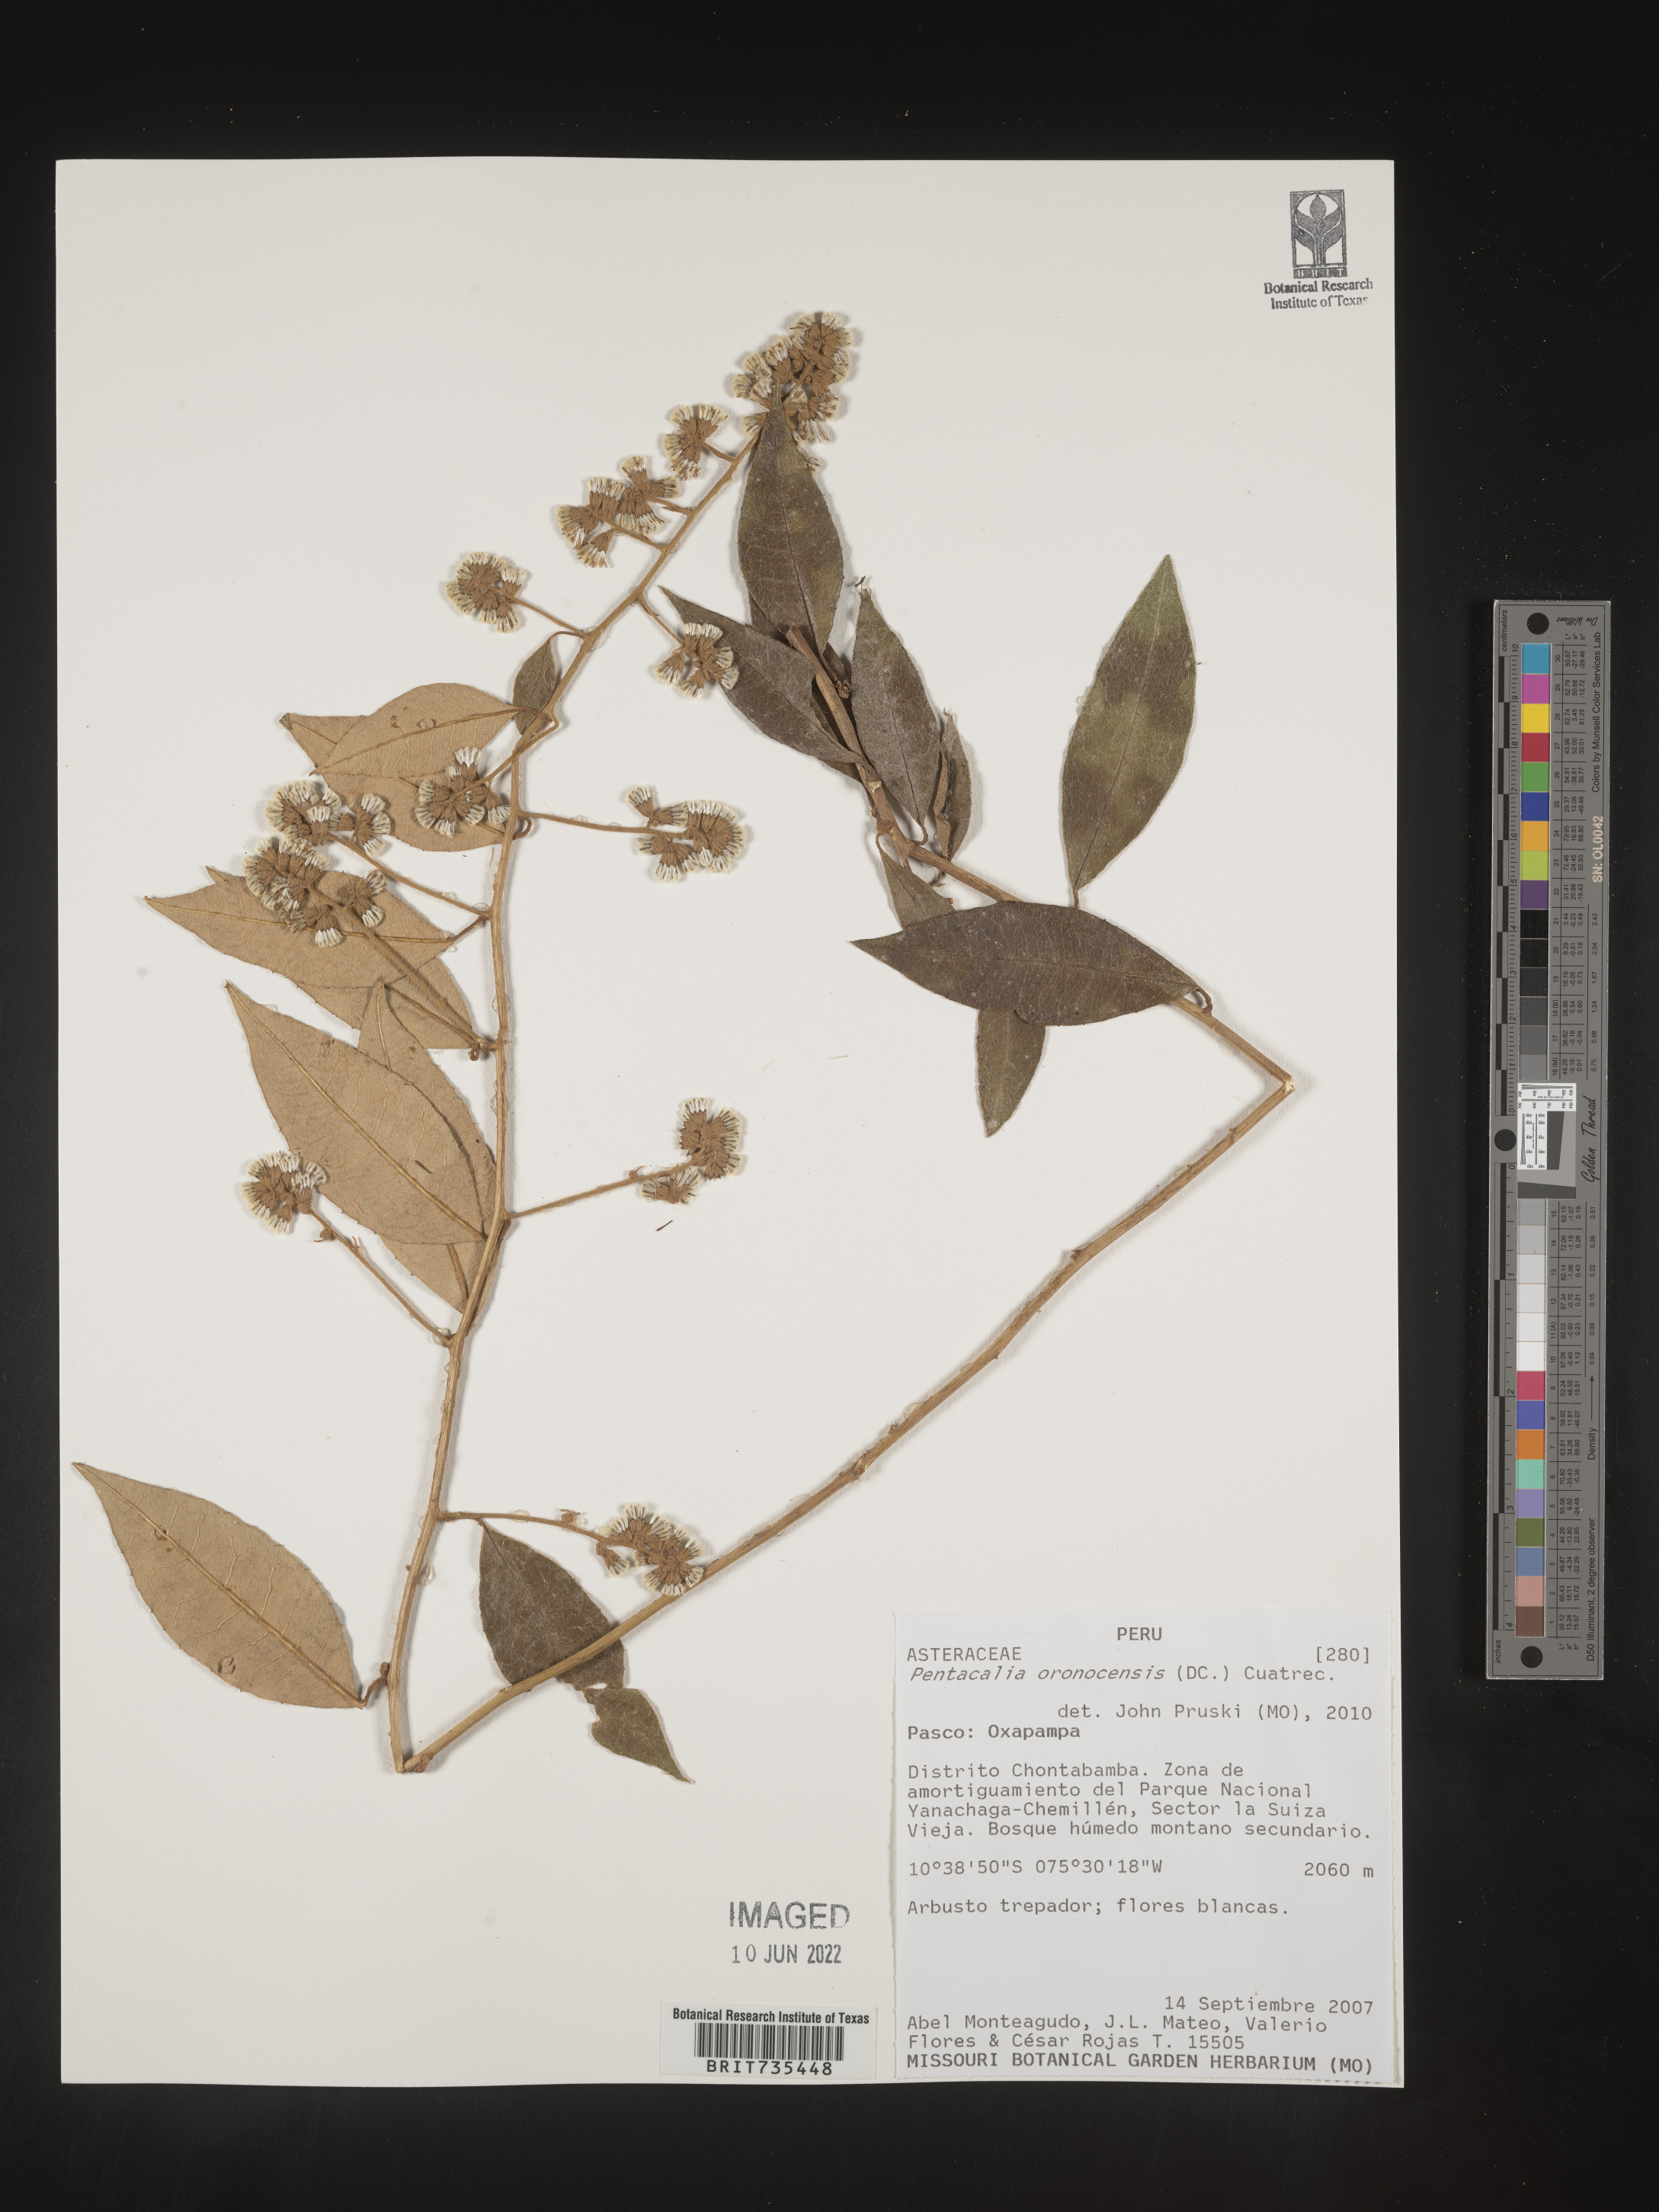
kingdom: Plantae
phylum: Tracheophyta
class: Magnoliopsida
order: Asterales
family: Asteraceae
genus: Pentacalia
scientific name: Pentacalia
